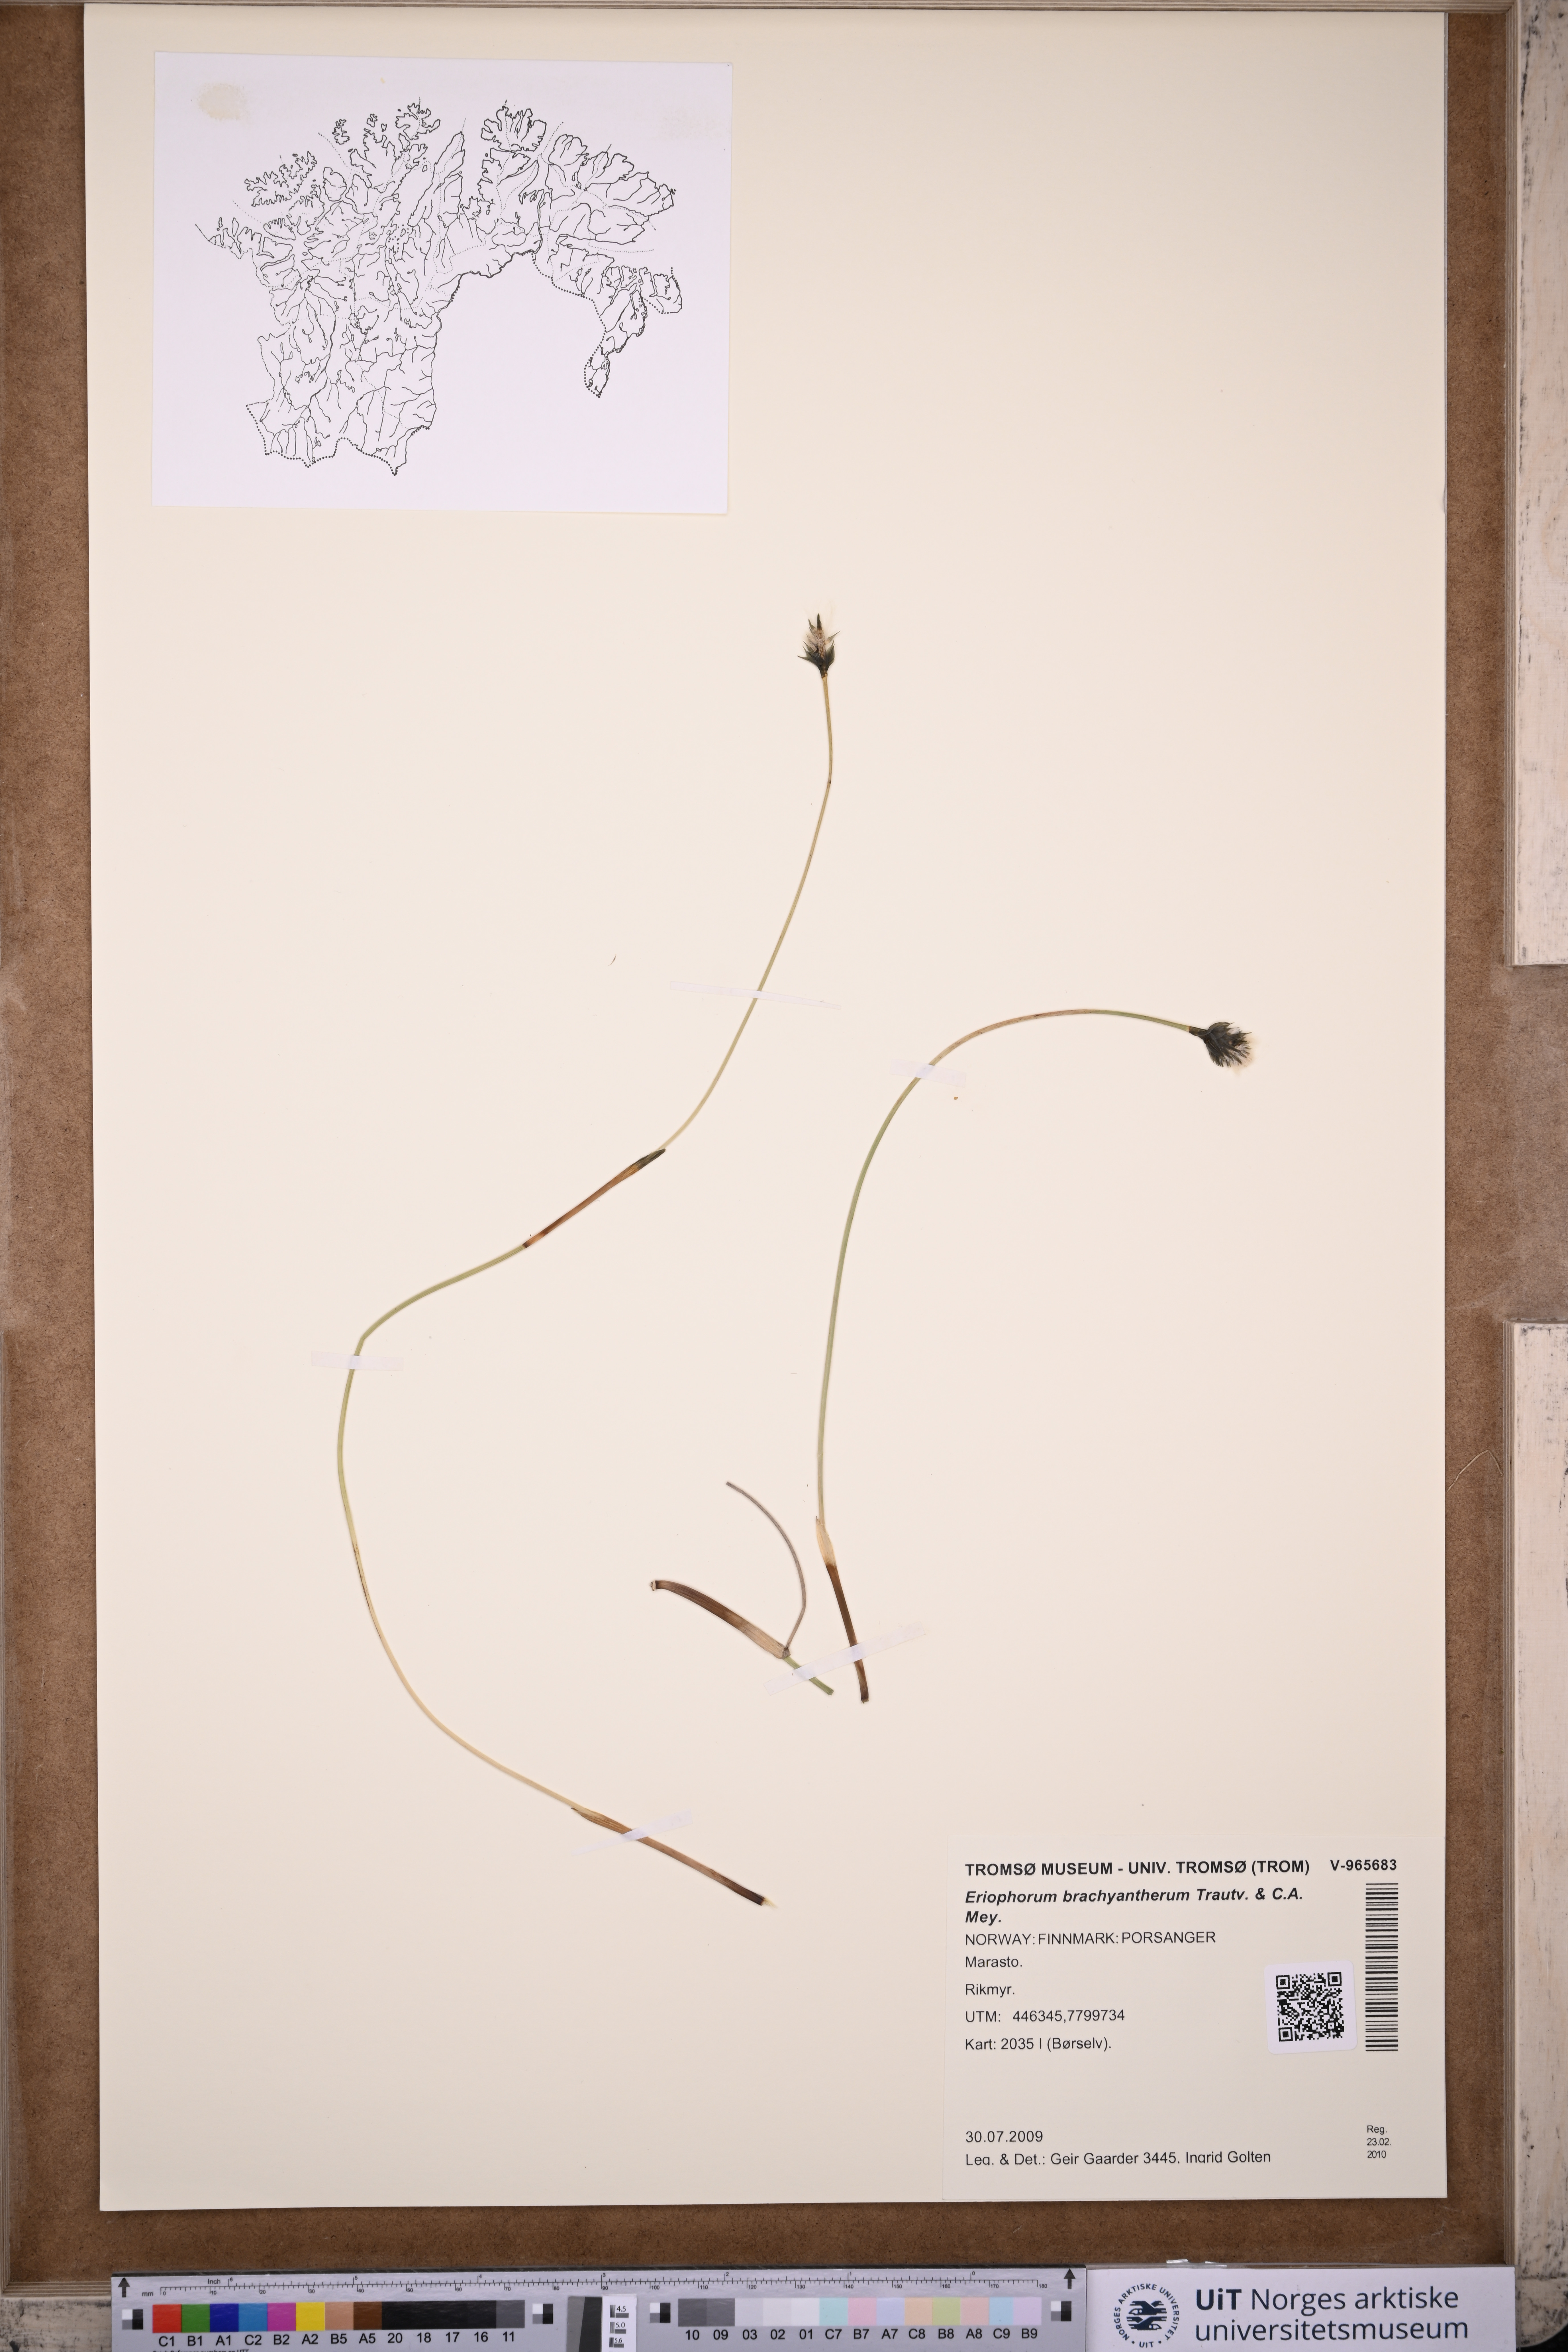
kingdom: Plantae
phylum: Tracheophyta
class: Liliopsida
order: Poales
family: Cyperaceae
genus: Eriophorum
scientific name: Eriophorum brachyantherum
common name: Closed-sheathed cottongrass
